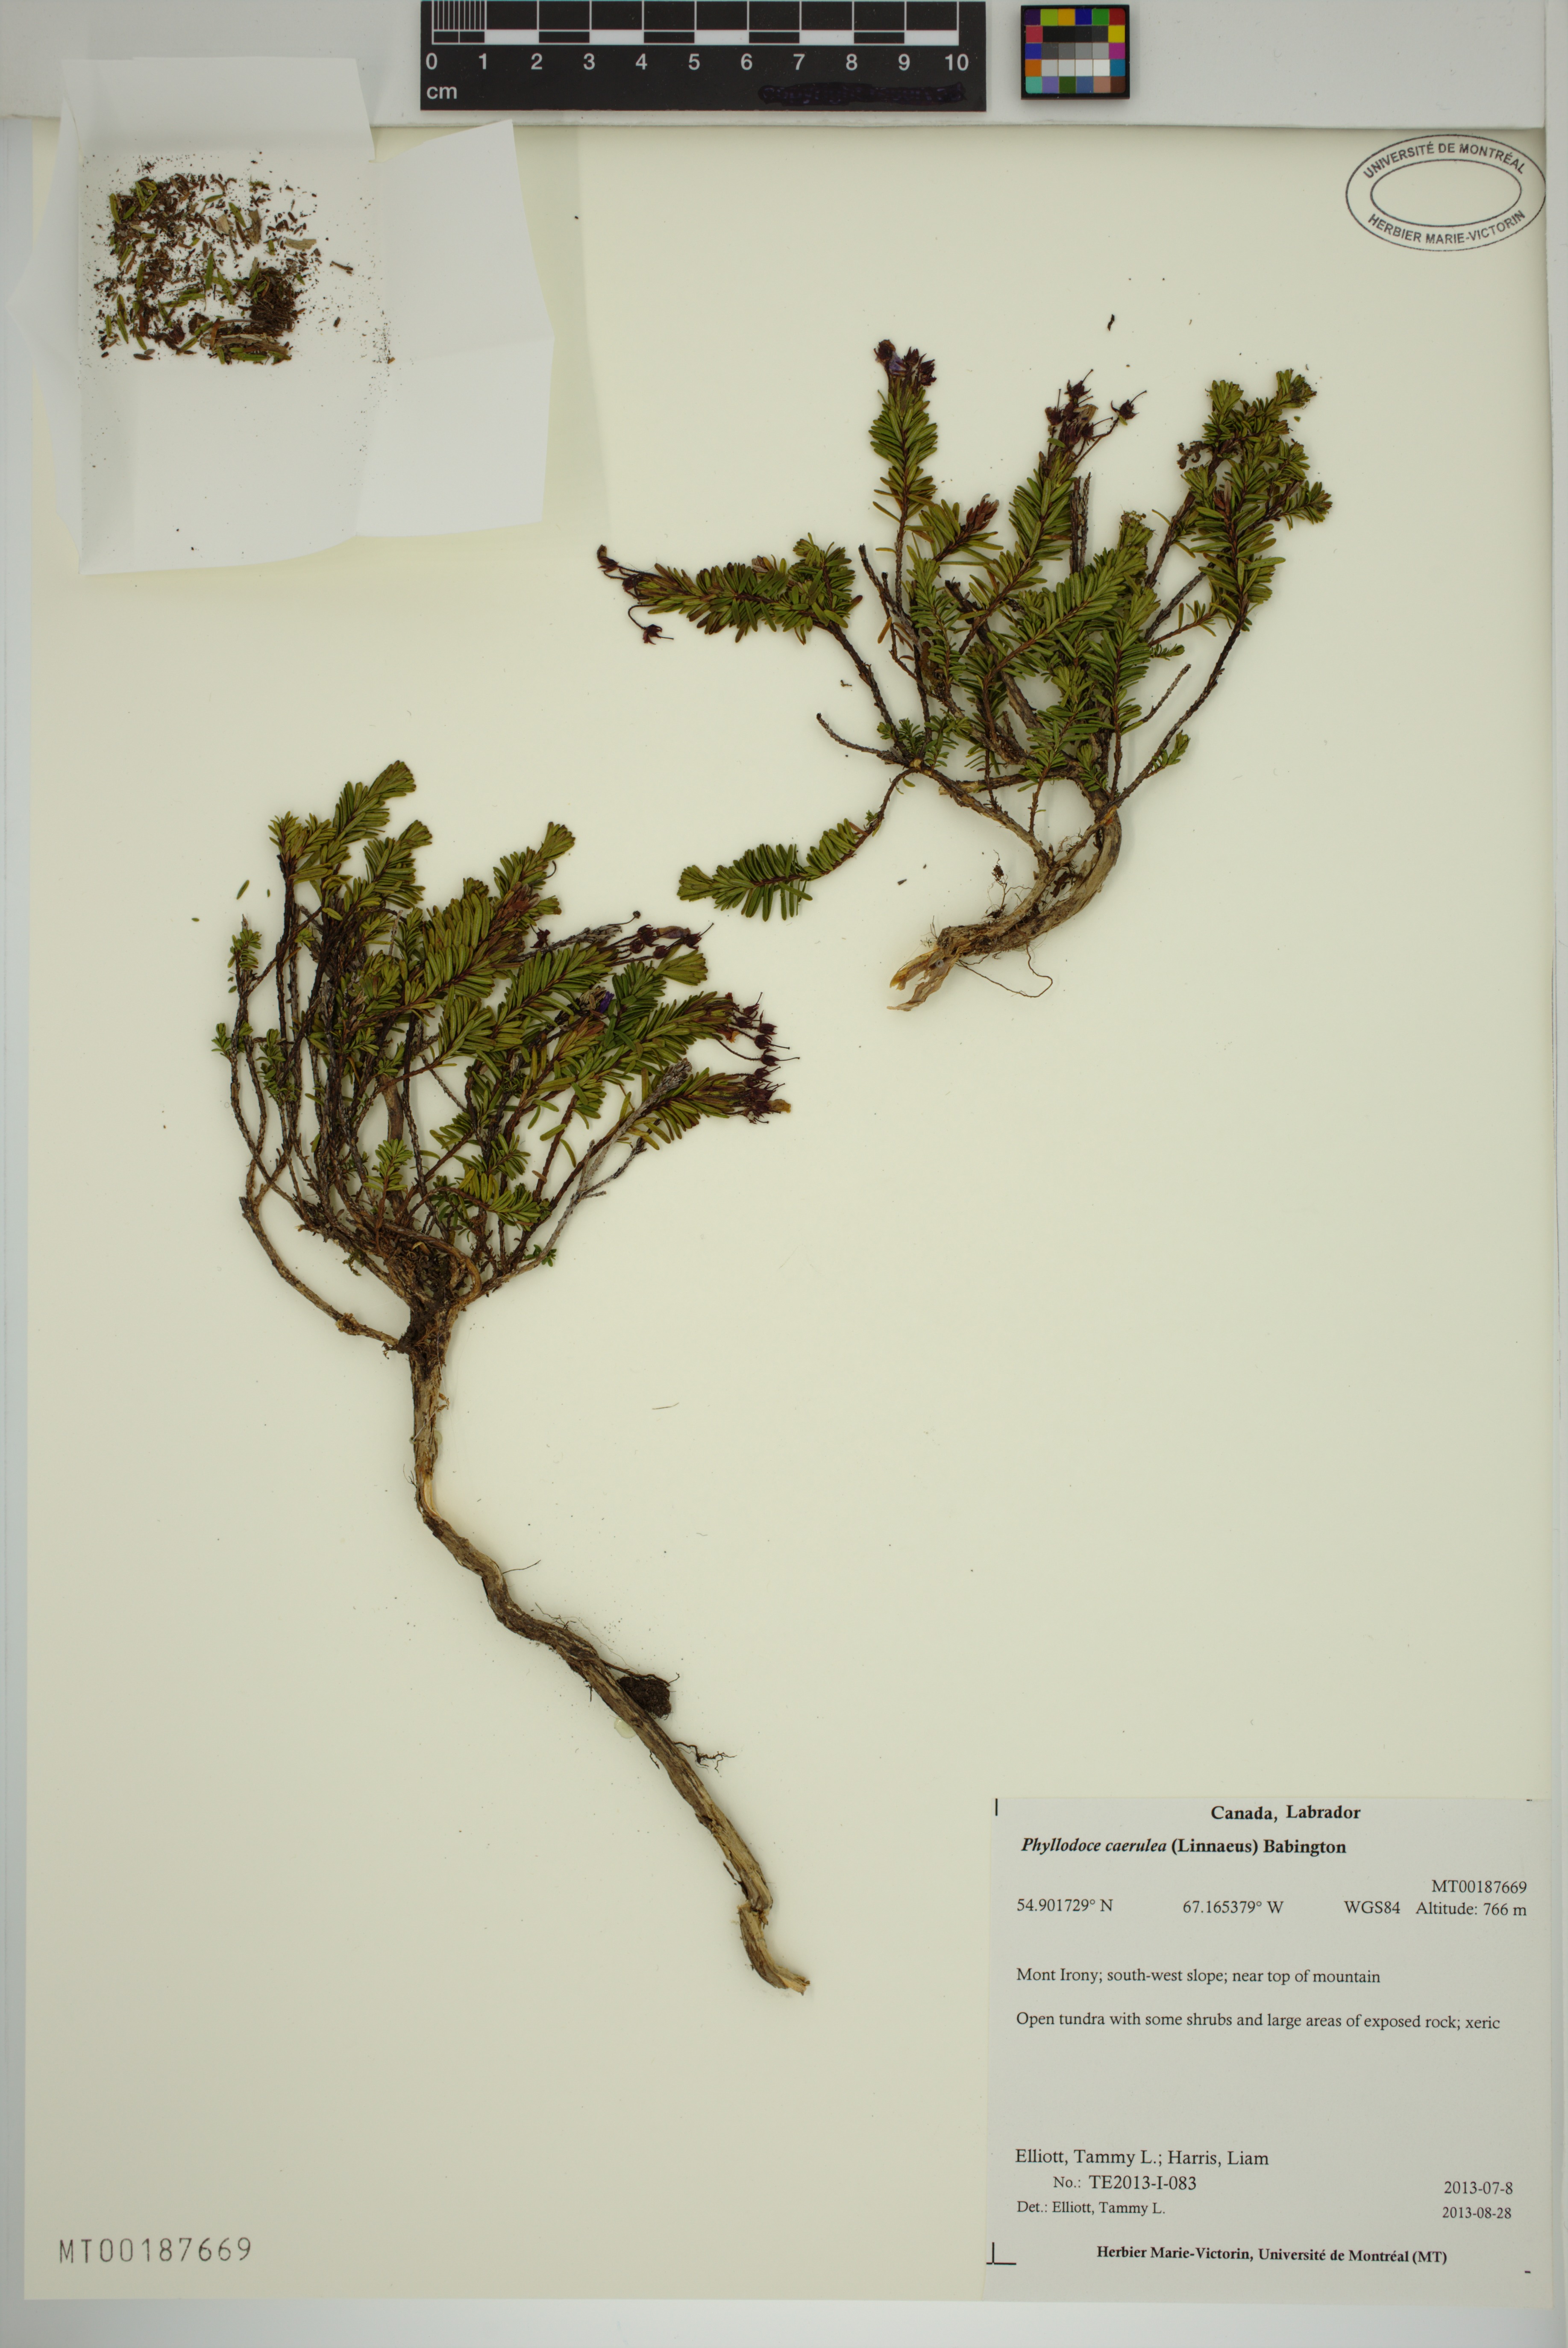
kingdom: Plantae
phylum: Tracheophyta
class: Magnoliopsida
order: Ericales
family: Ericaceae
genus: Phyllodoce
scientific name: Phyllodoce caerulea
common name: Blue heath
